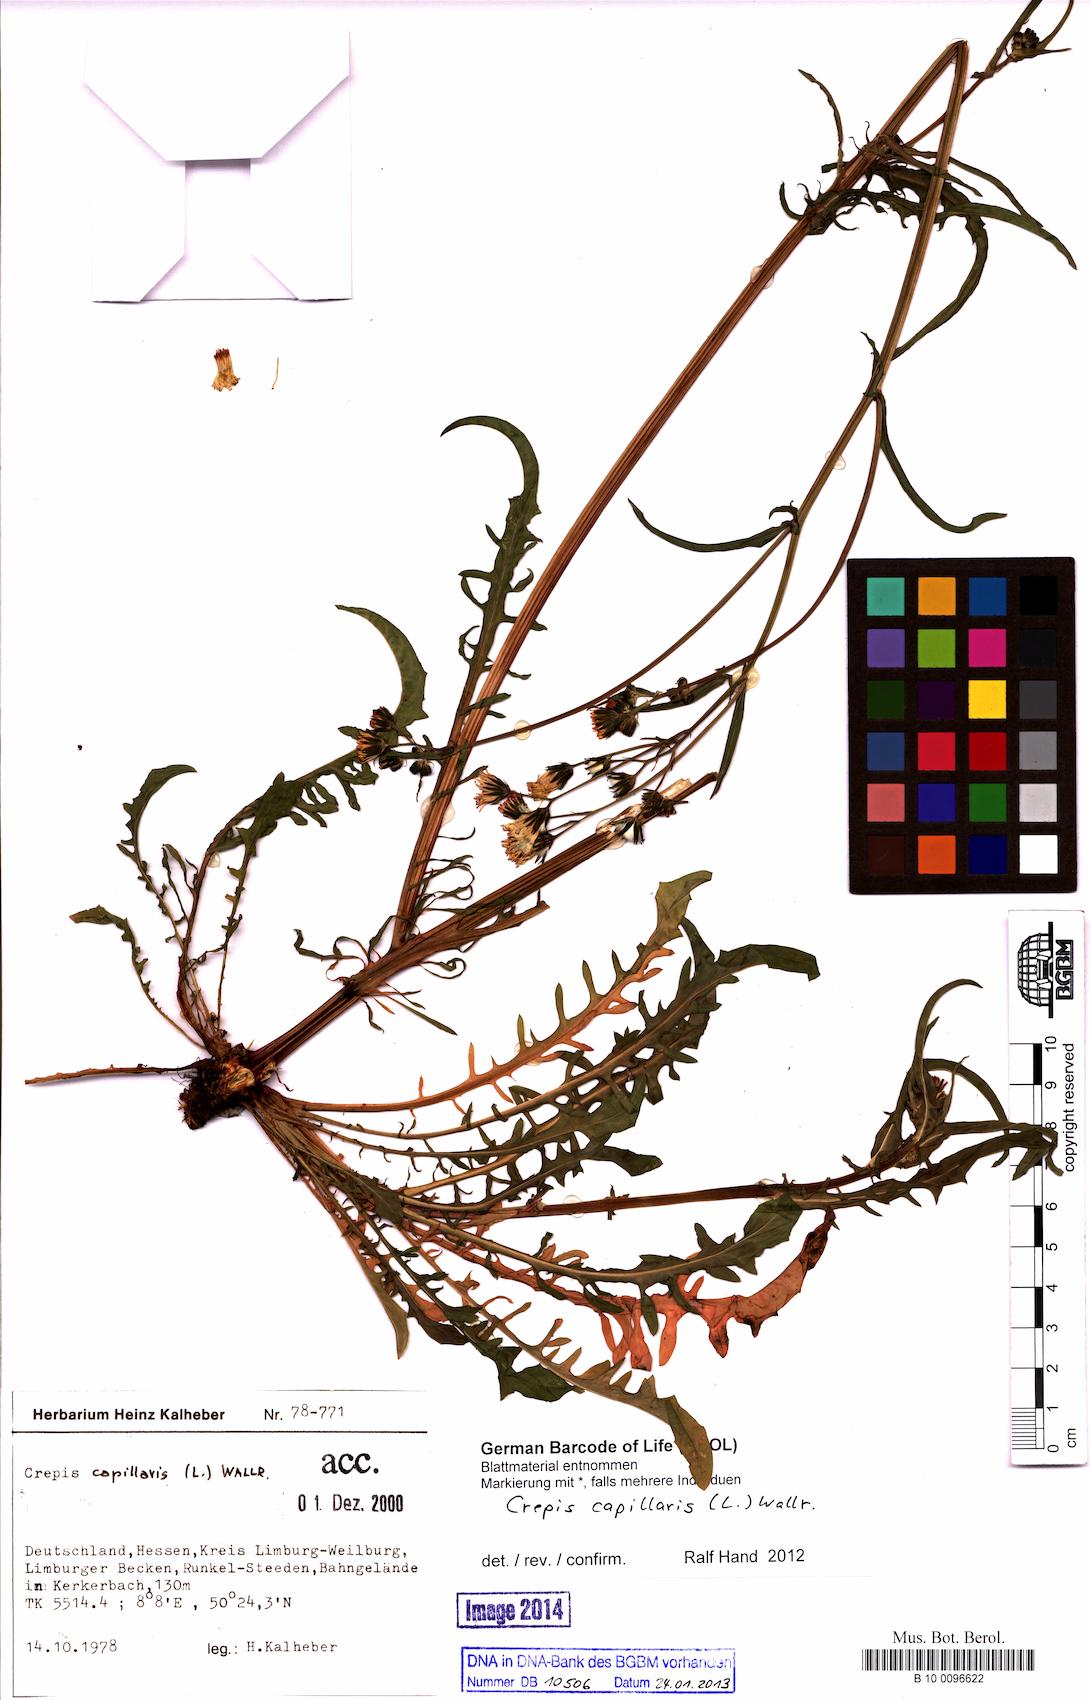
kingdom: Plantae
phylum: Tracheophyta
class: Magnoliopsida
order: Asterales
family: Asteraceae
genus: Crepis
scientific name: Crepis capillaris
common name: Smooth hawksbeard
